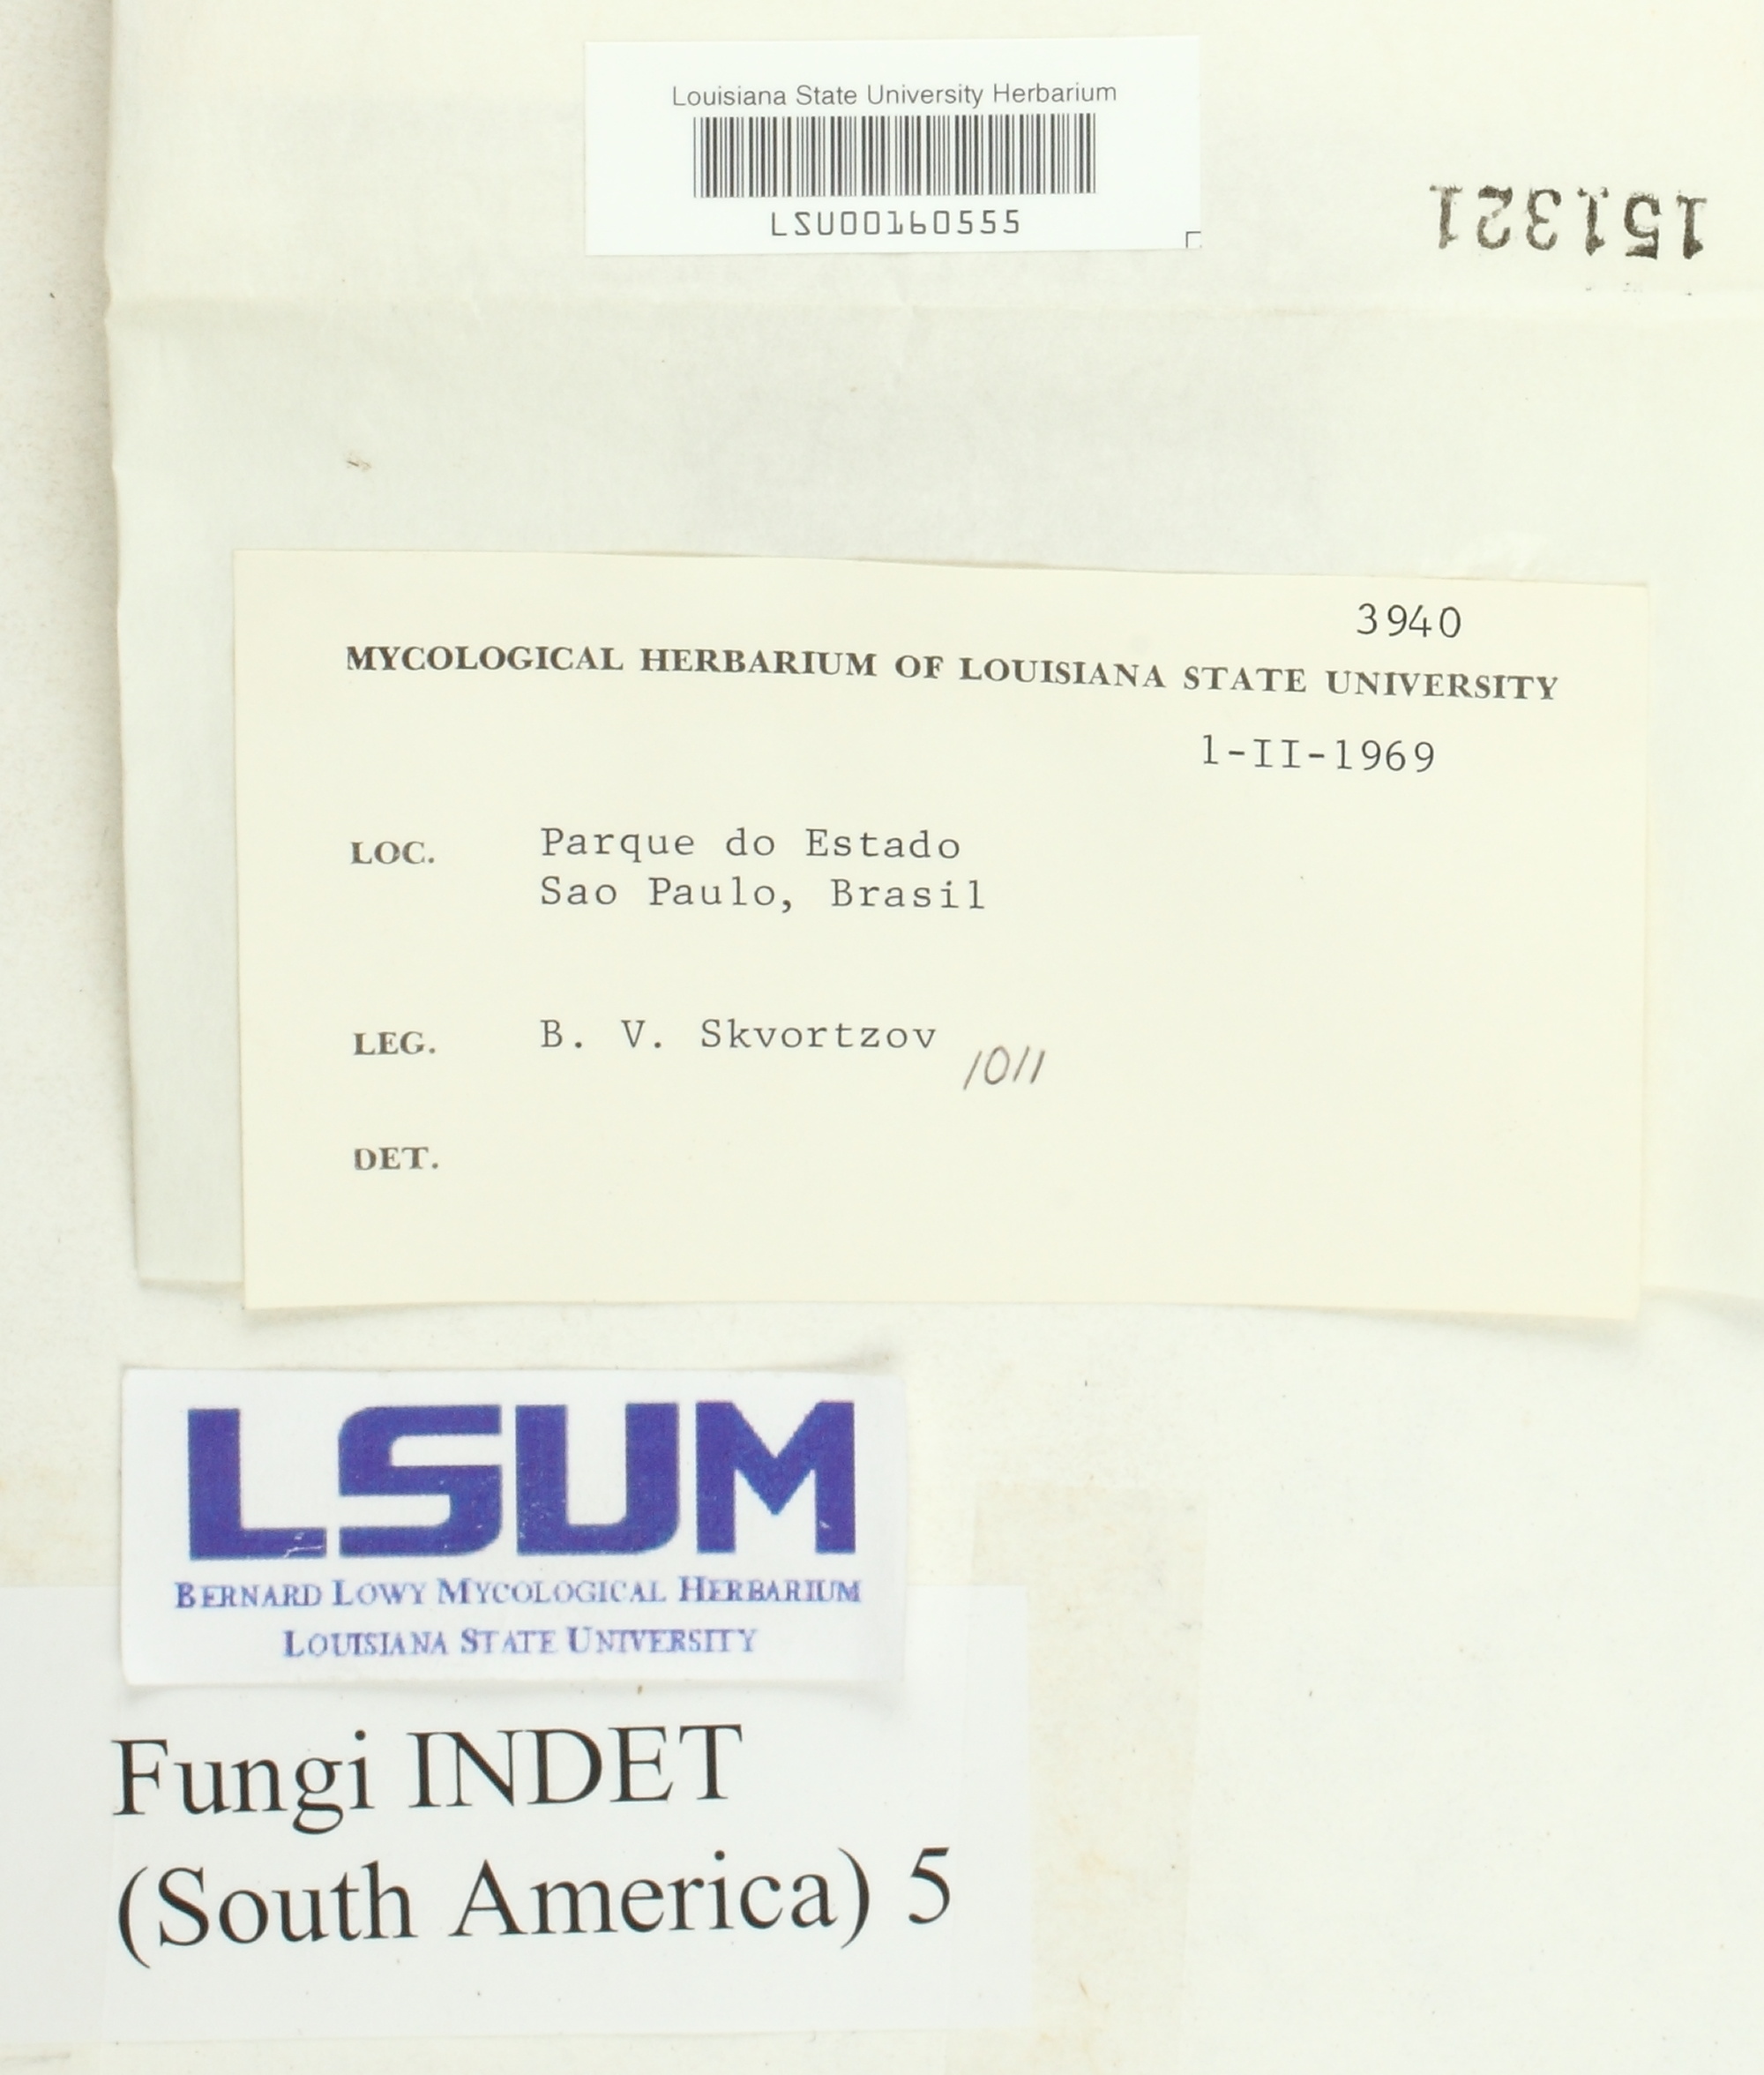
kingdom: Fungi
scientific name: Fungi
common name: Fungi
